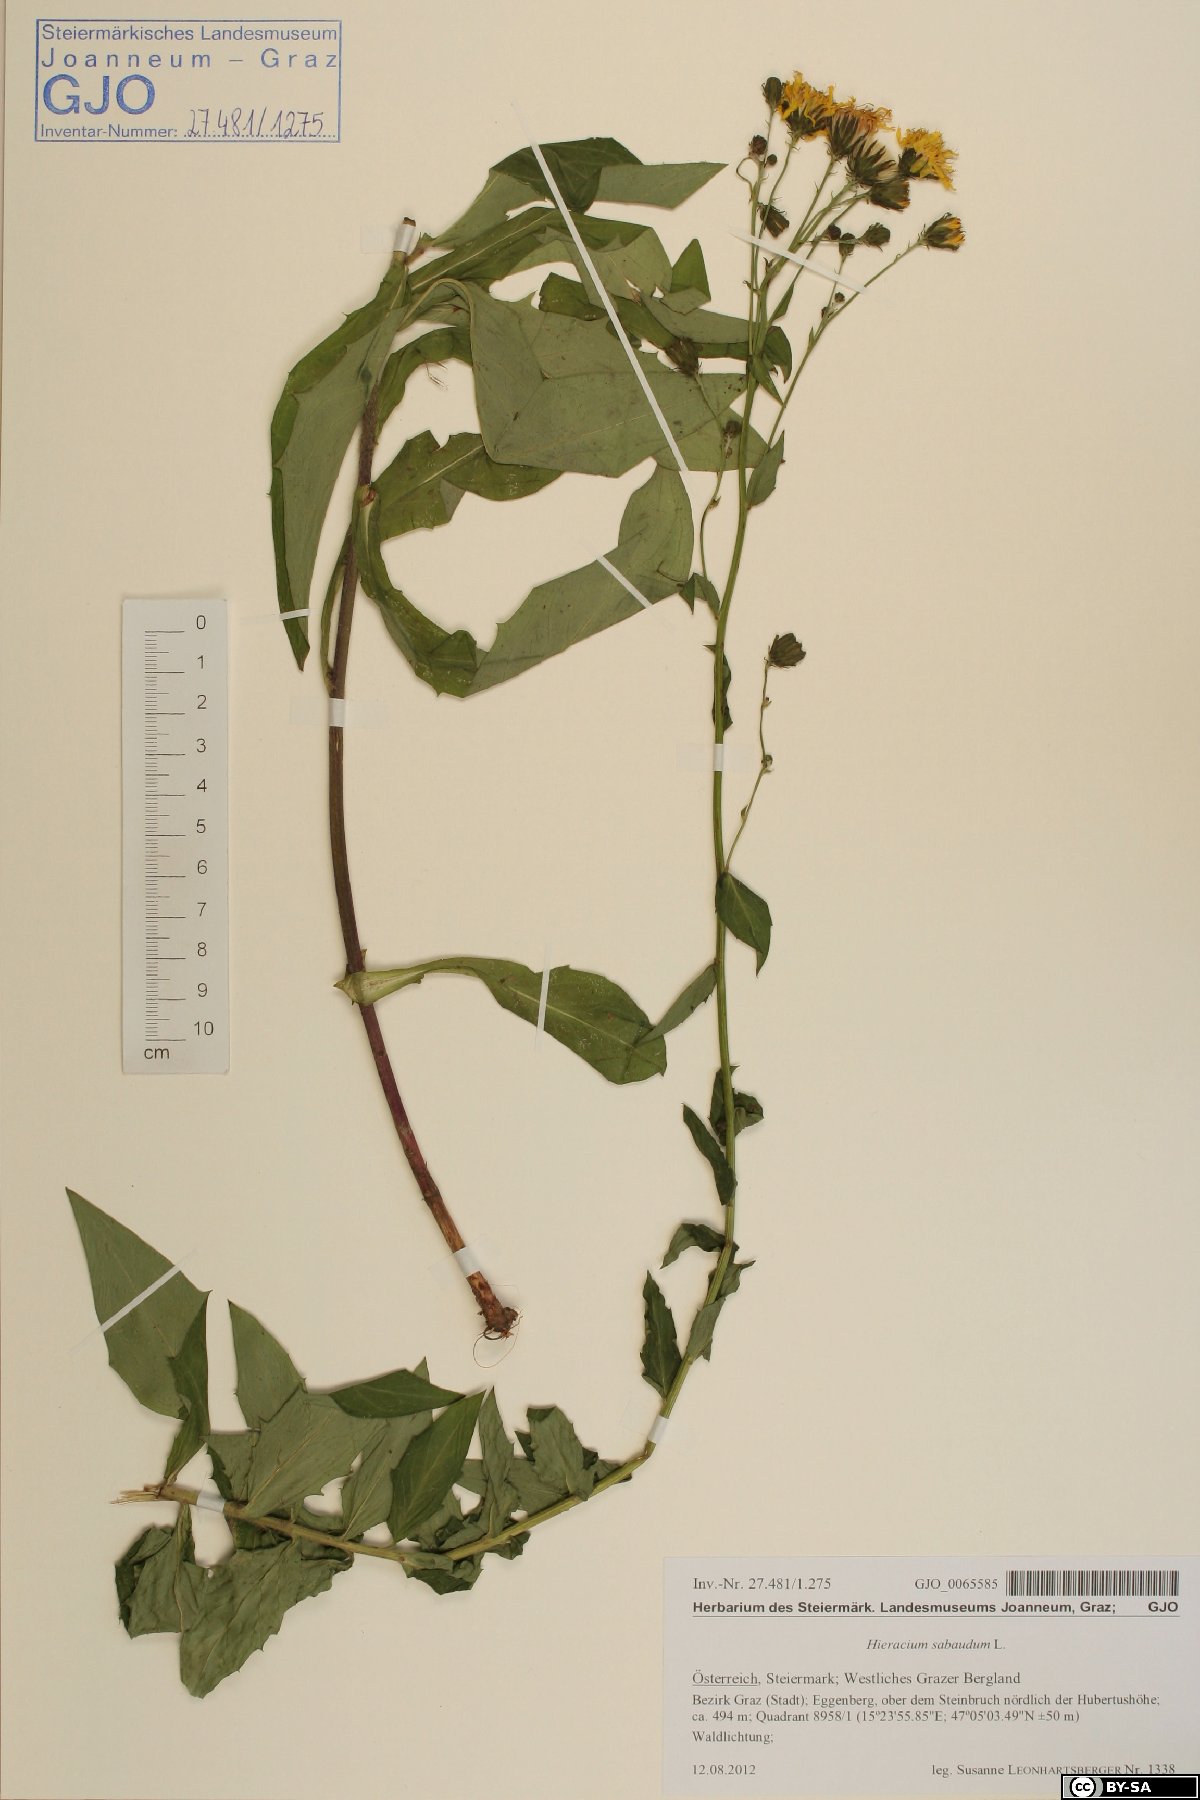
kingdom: Plantae
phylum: Tracheophyta
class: Magnoliopsida
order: Asterales
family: Asteraceae
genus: Hieracium
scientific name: Hieracium sabaudum
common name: New england hawkweed
